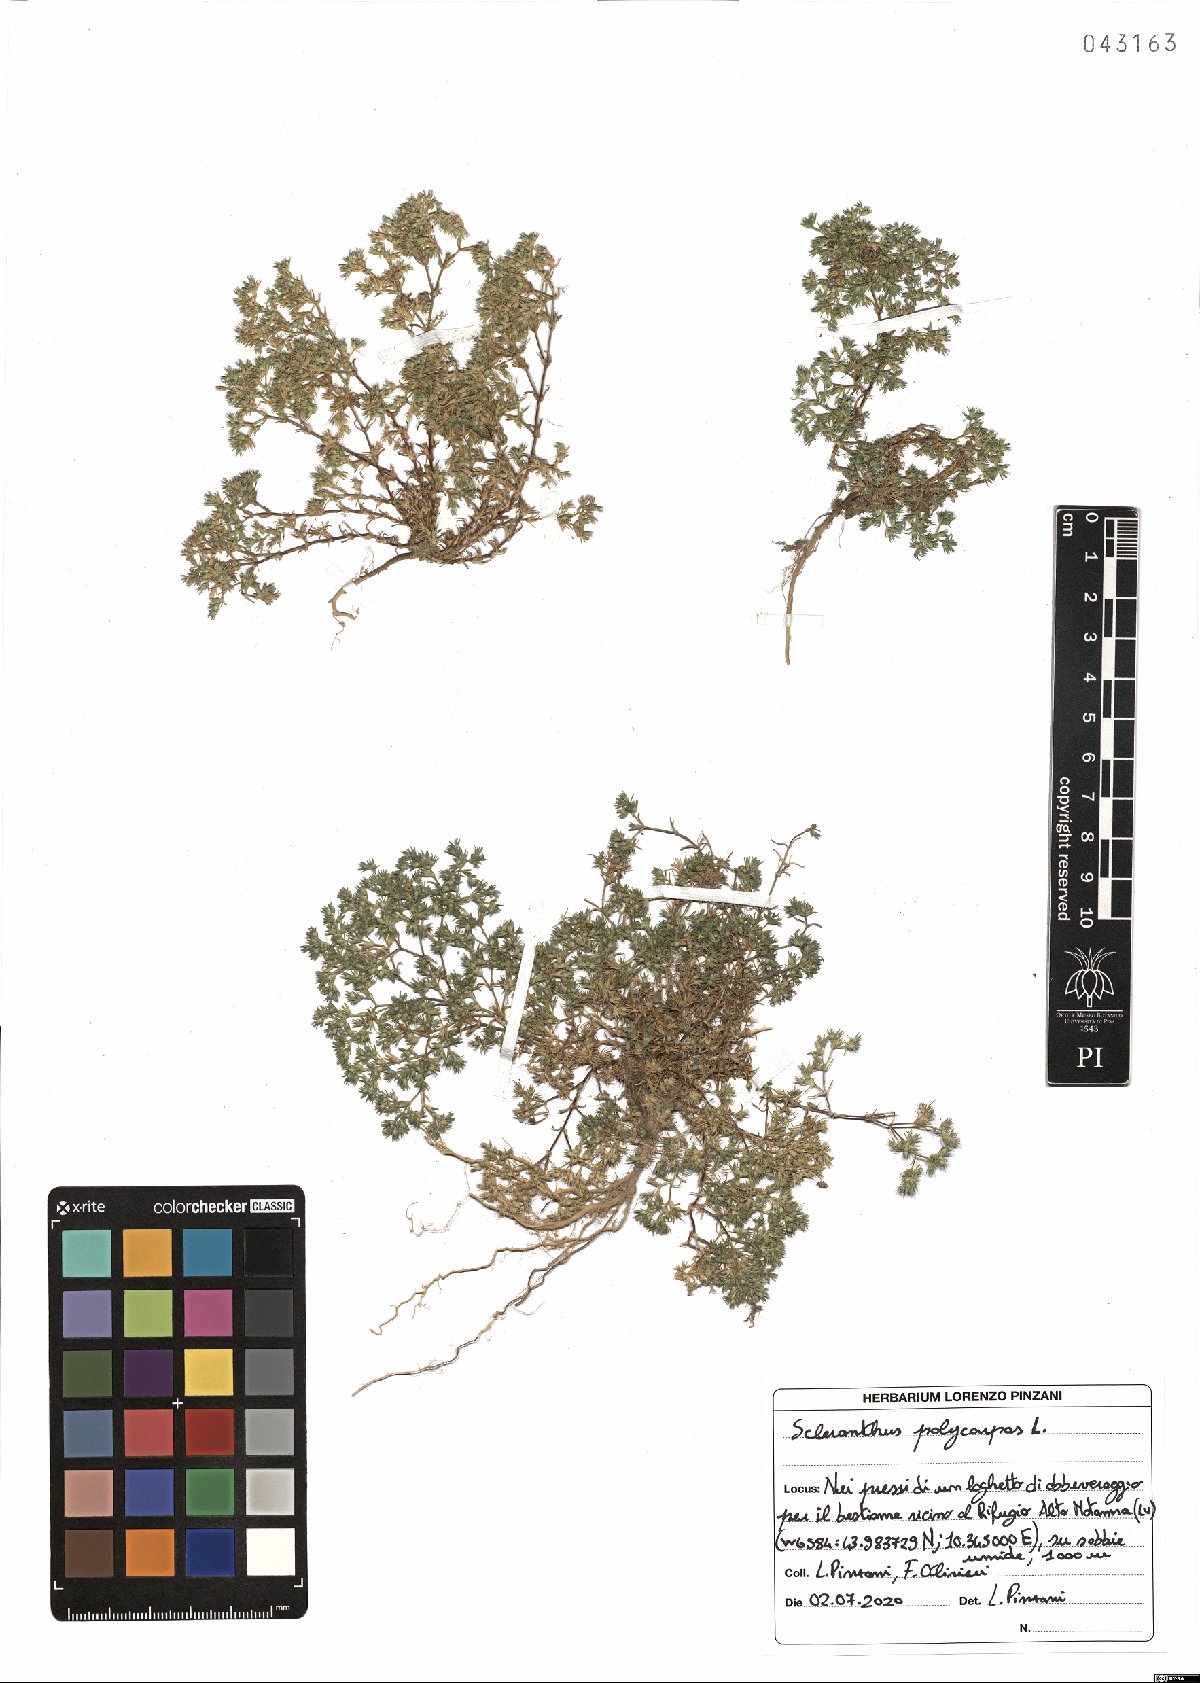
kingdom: Plantae
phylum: Tracheophyta
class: Magnoliopsida
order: Caryophyllales
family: Caryophyllaceae
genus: Scleranthus
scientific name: Scleranthus annuus
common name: Annual knawel
